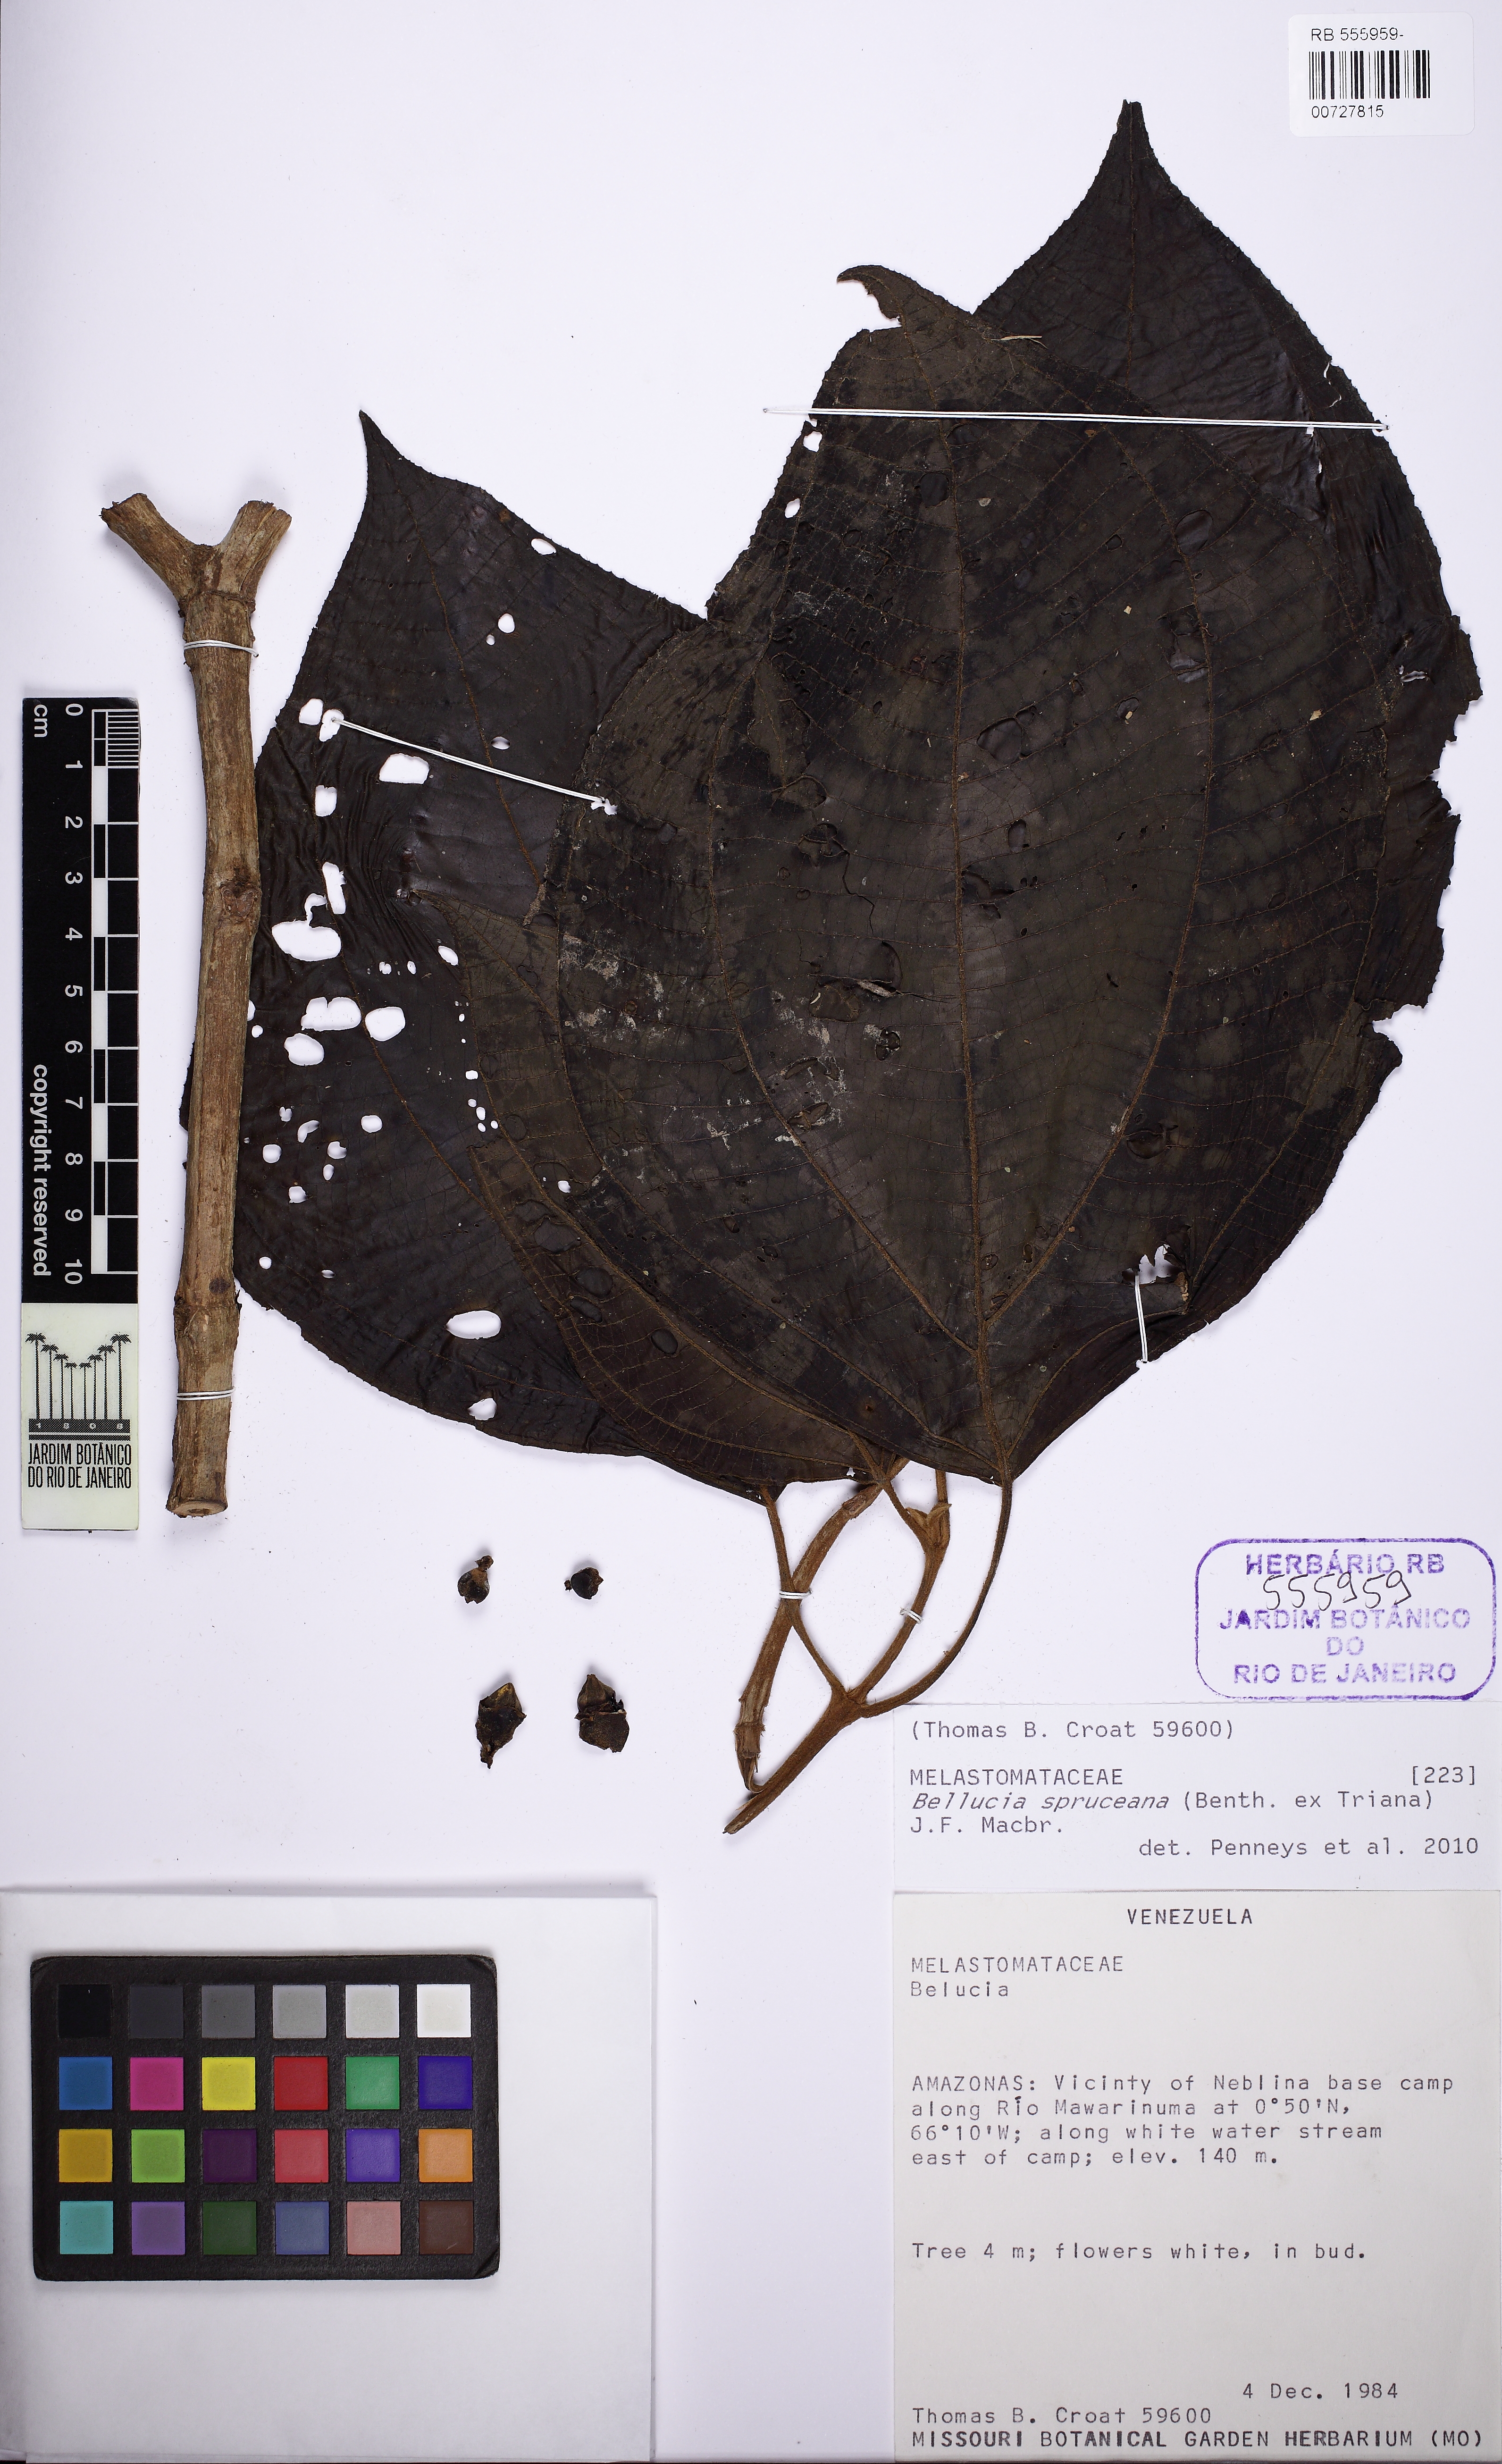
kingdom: Plantae
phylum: Tracheophyta
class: Magnoliopsida
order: Myrtales
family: Melastomataceae
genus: Bellucia
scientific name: Bellucia spruceana
